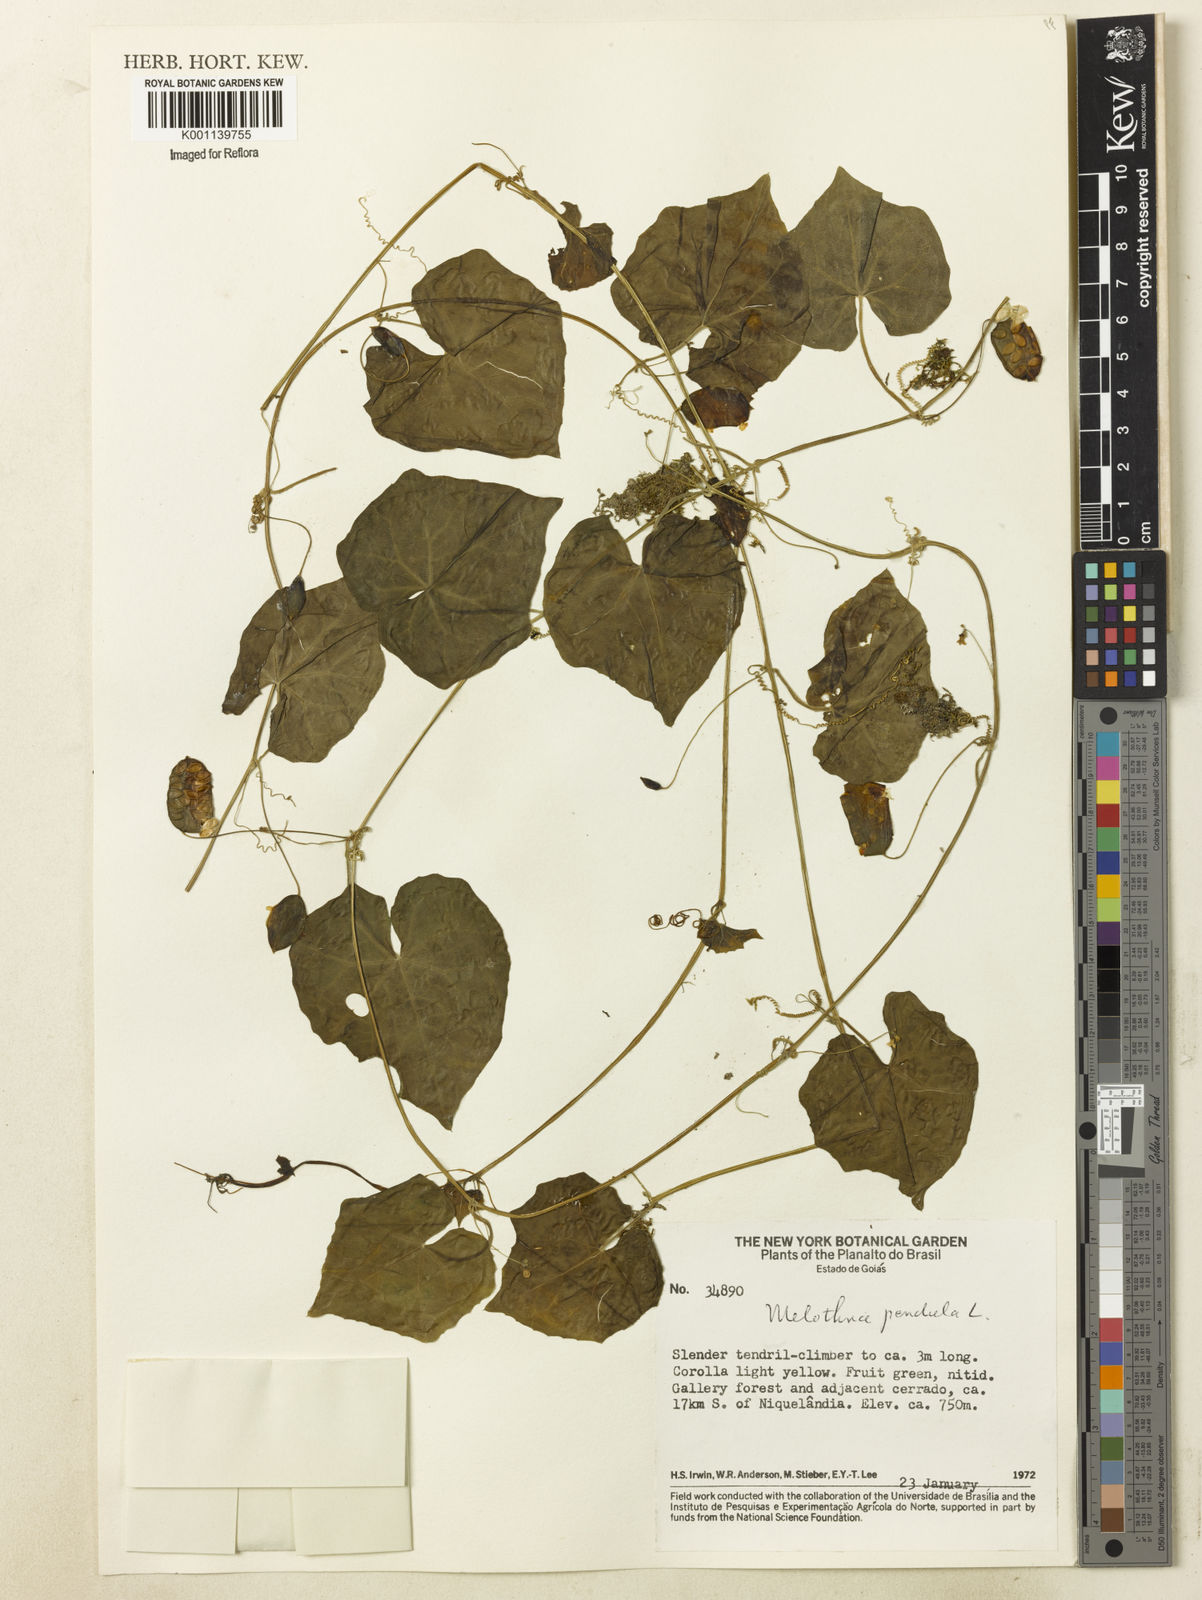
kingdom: Plantae
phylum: Tracheophyta
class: Magnoliopsida
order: Cucurbitales
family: Cucurbitaceae
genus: Melothria
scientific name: Melothria pendula
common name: Creeping-cucumber
